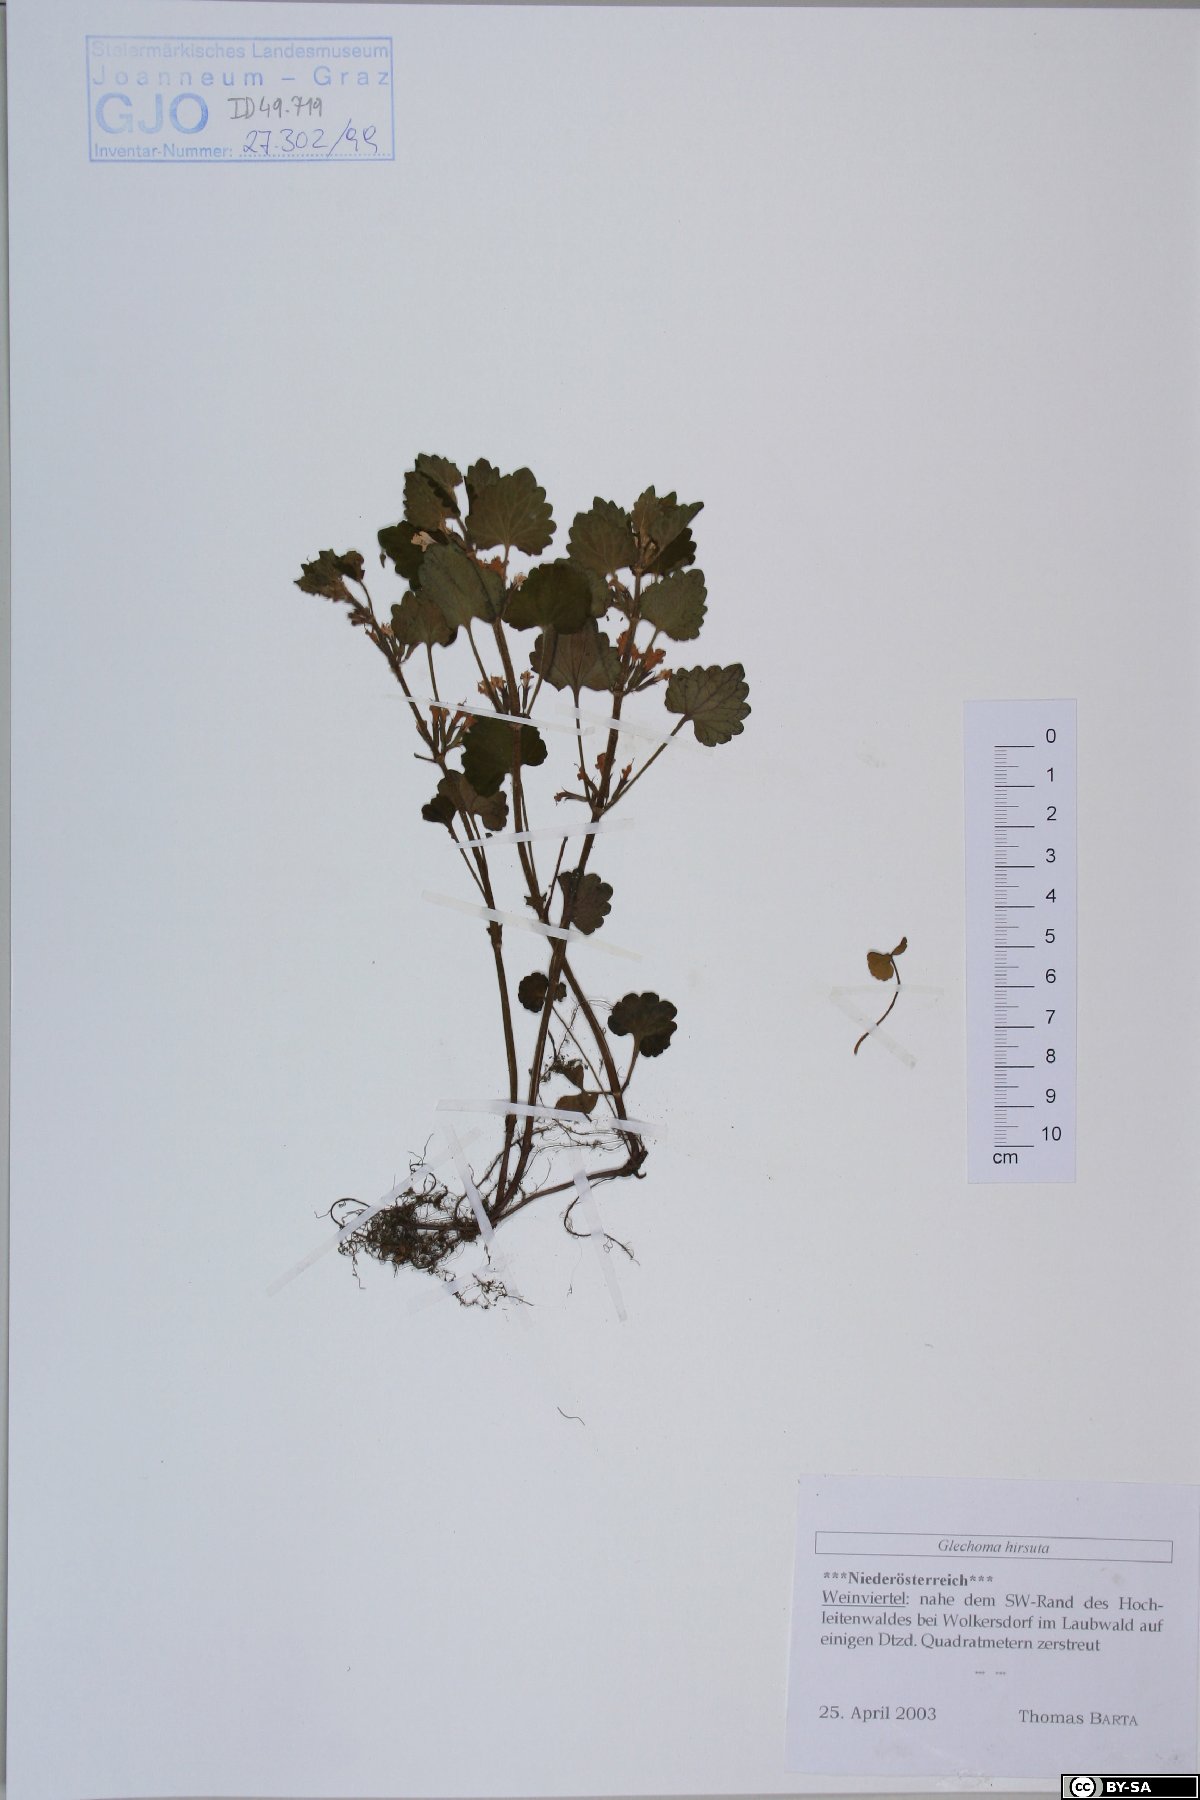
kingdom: Plantae
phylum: Tracheophyta
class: Magnoliopsida
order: Lamiales
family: Lamiaceae
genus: Glechoma
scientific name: Glechoma hirsuta
